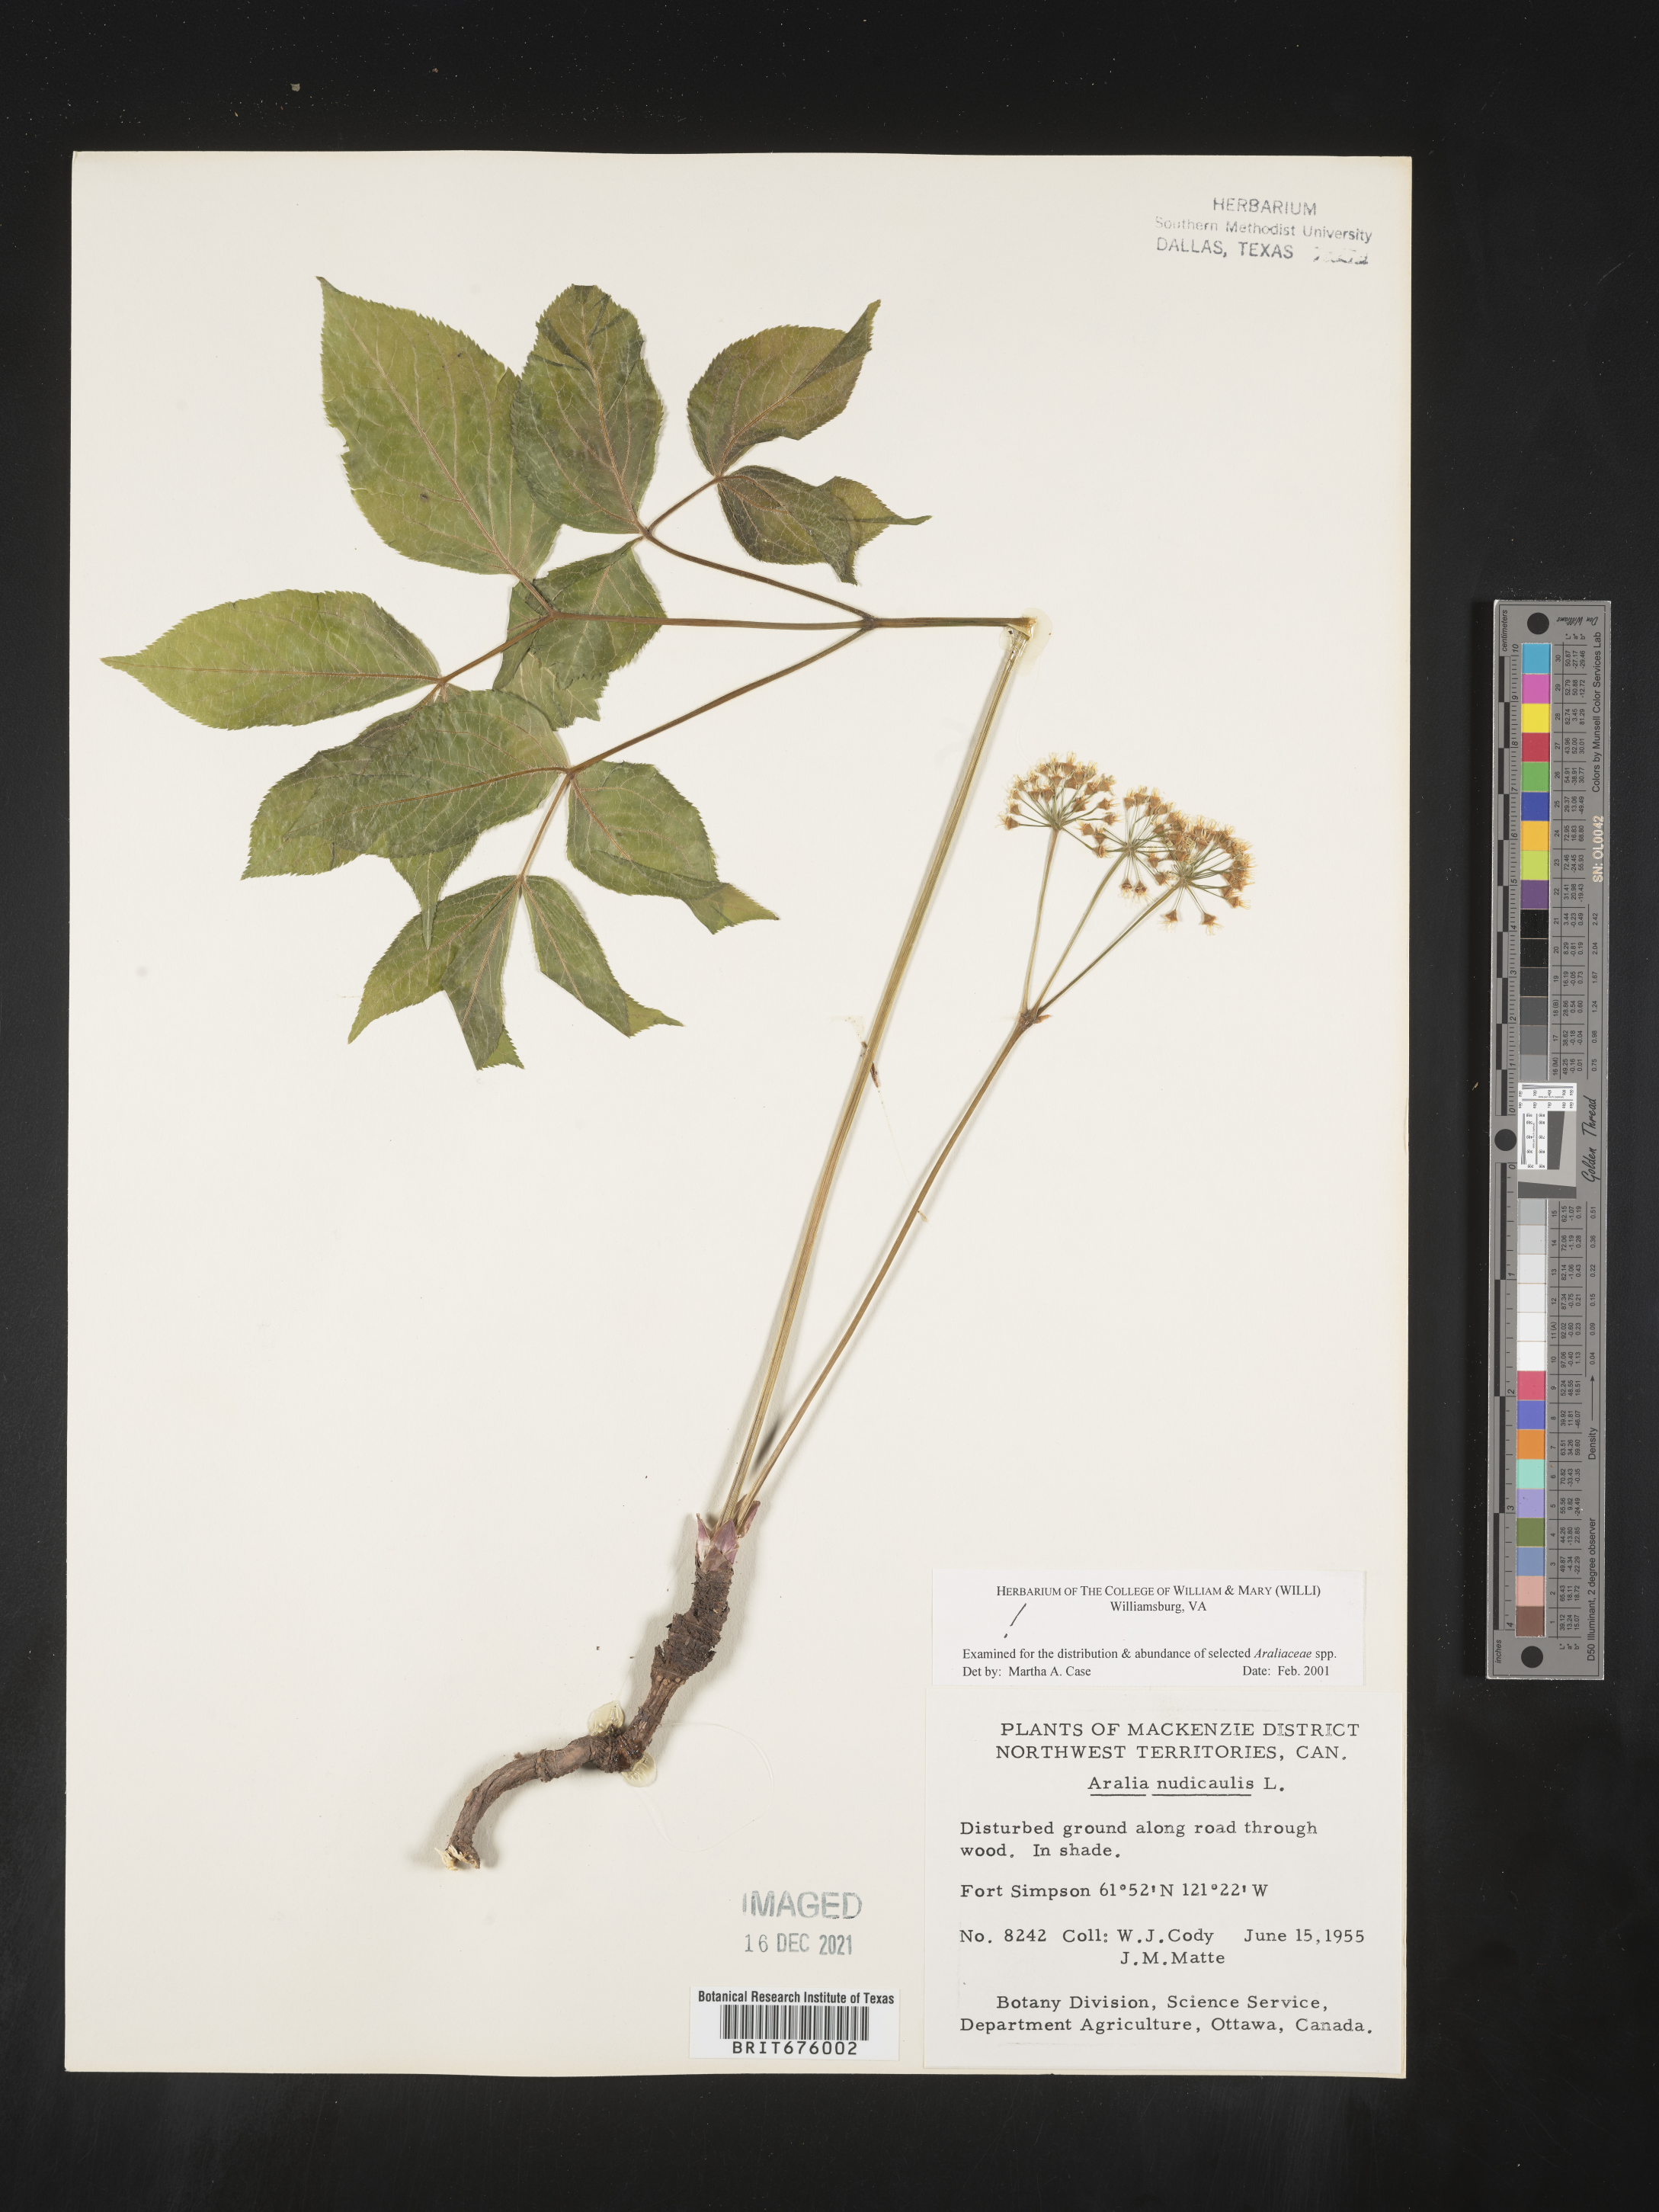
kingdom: Plantae
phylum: Tracheophyta
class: Magnoliopsida
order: Apiales
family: Araliaceae
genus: Aralia
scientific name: Aralia nudicaulis
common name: Wild sarsaparilla
